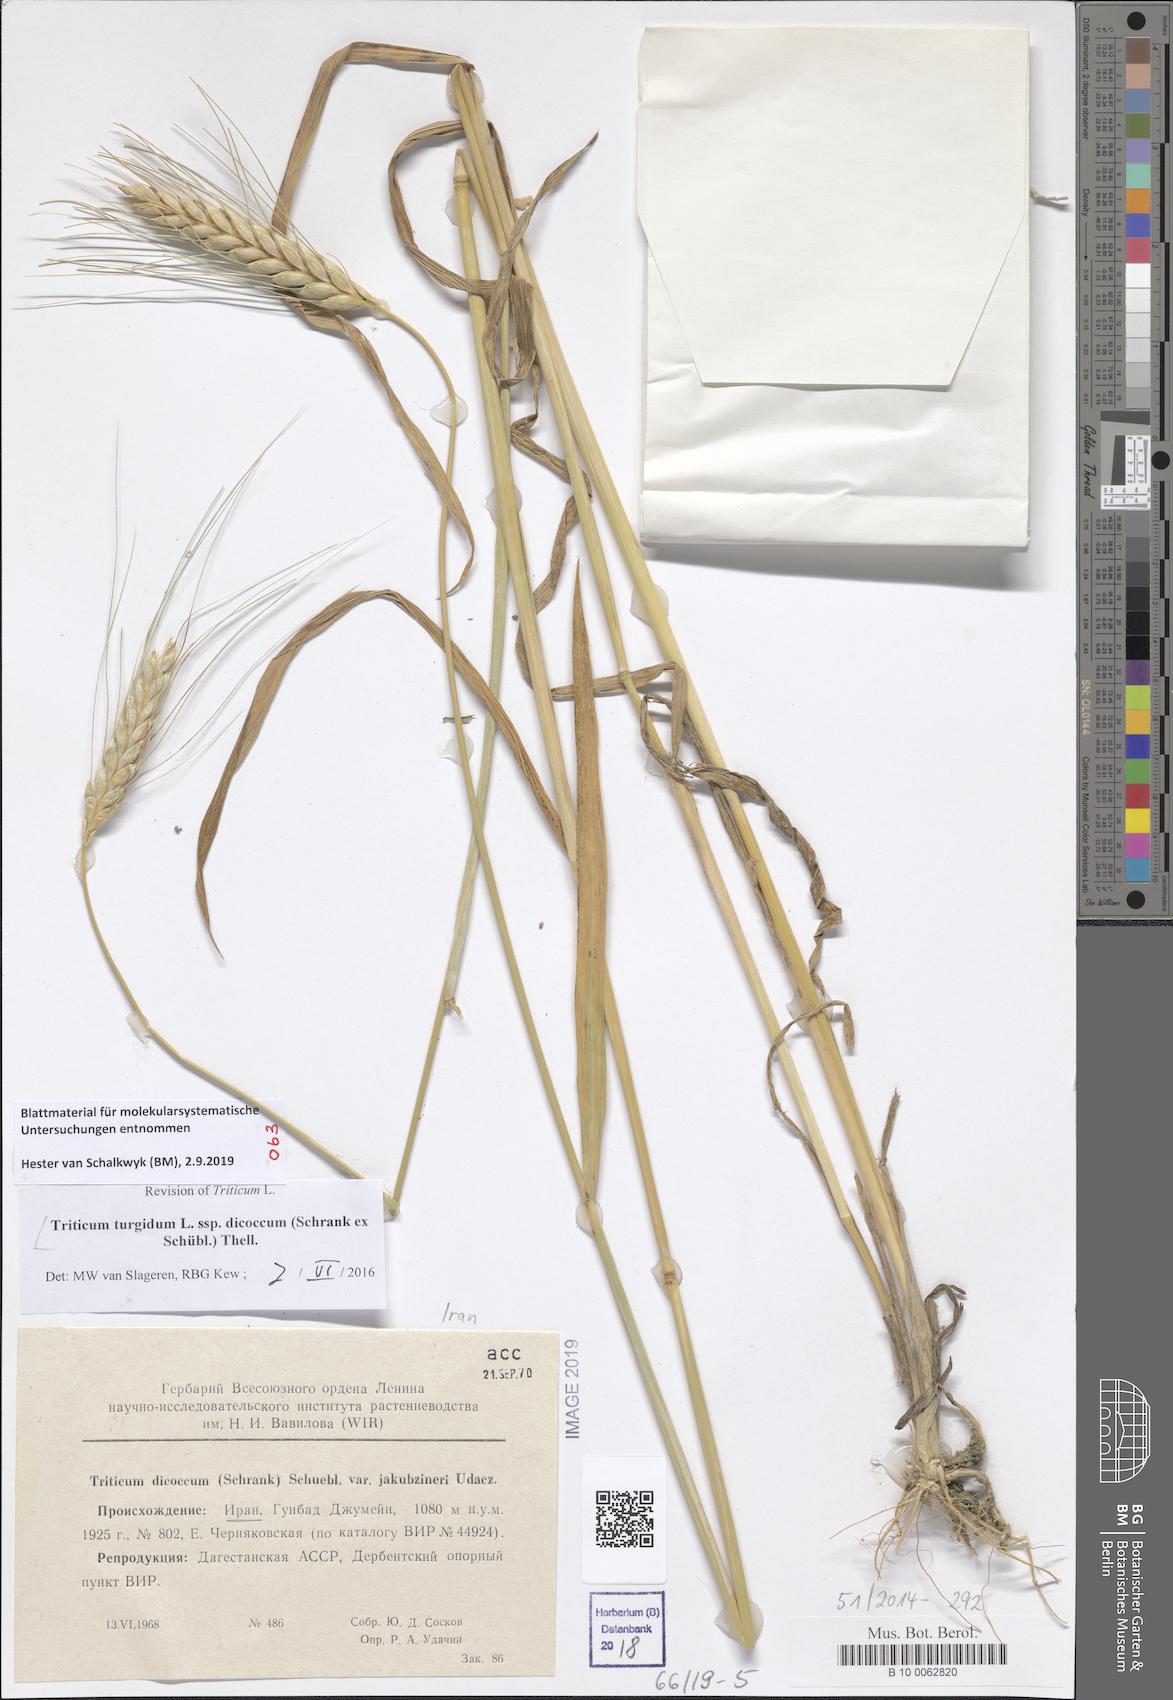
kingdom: Plantae
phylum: Tracheophyta
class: Liliopsida
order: Poales
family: Poaceae
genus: Triticum
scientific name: Triticum turgidum
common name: Rivet wheat
